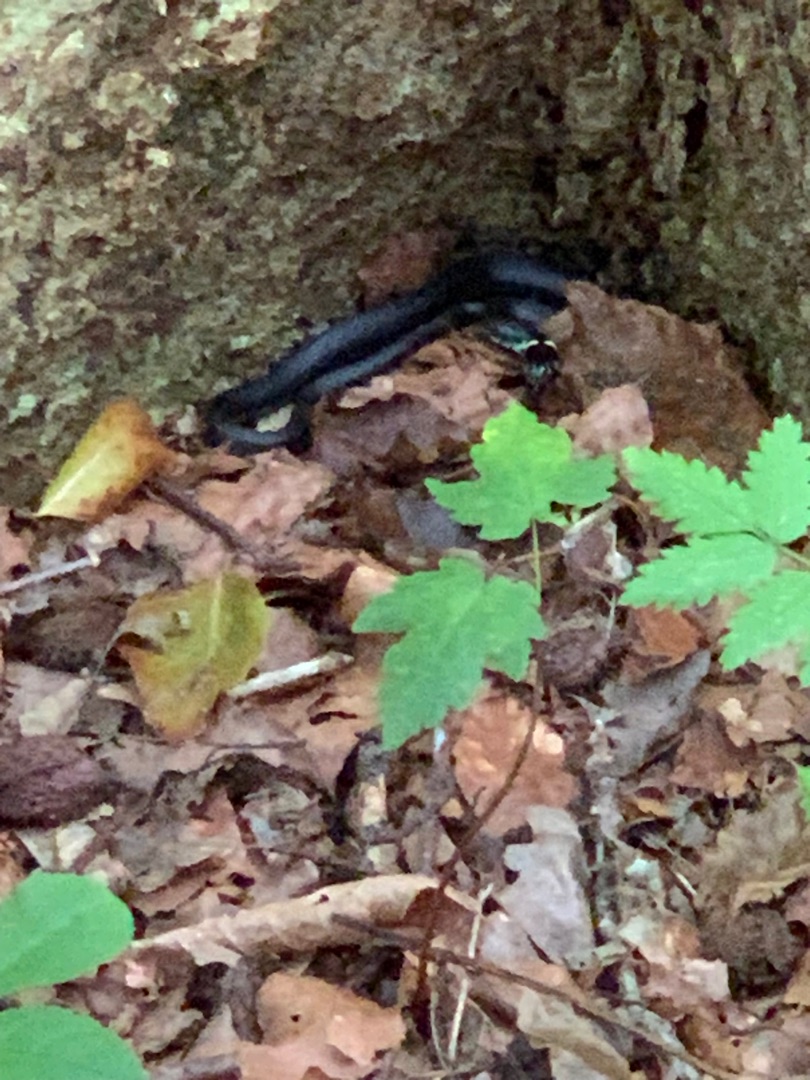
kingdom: Animalia
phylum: Chordata
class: Squamata
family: Colubridae
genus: Natrix
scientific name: Natrix natrix
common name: Snog
